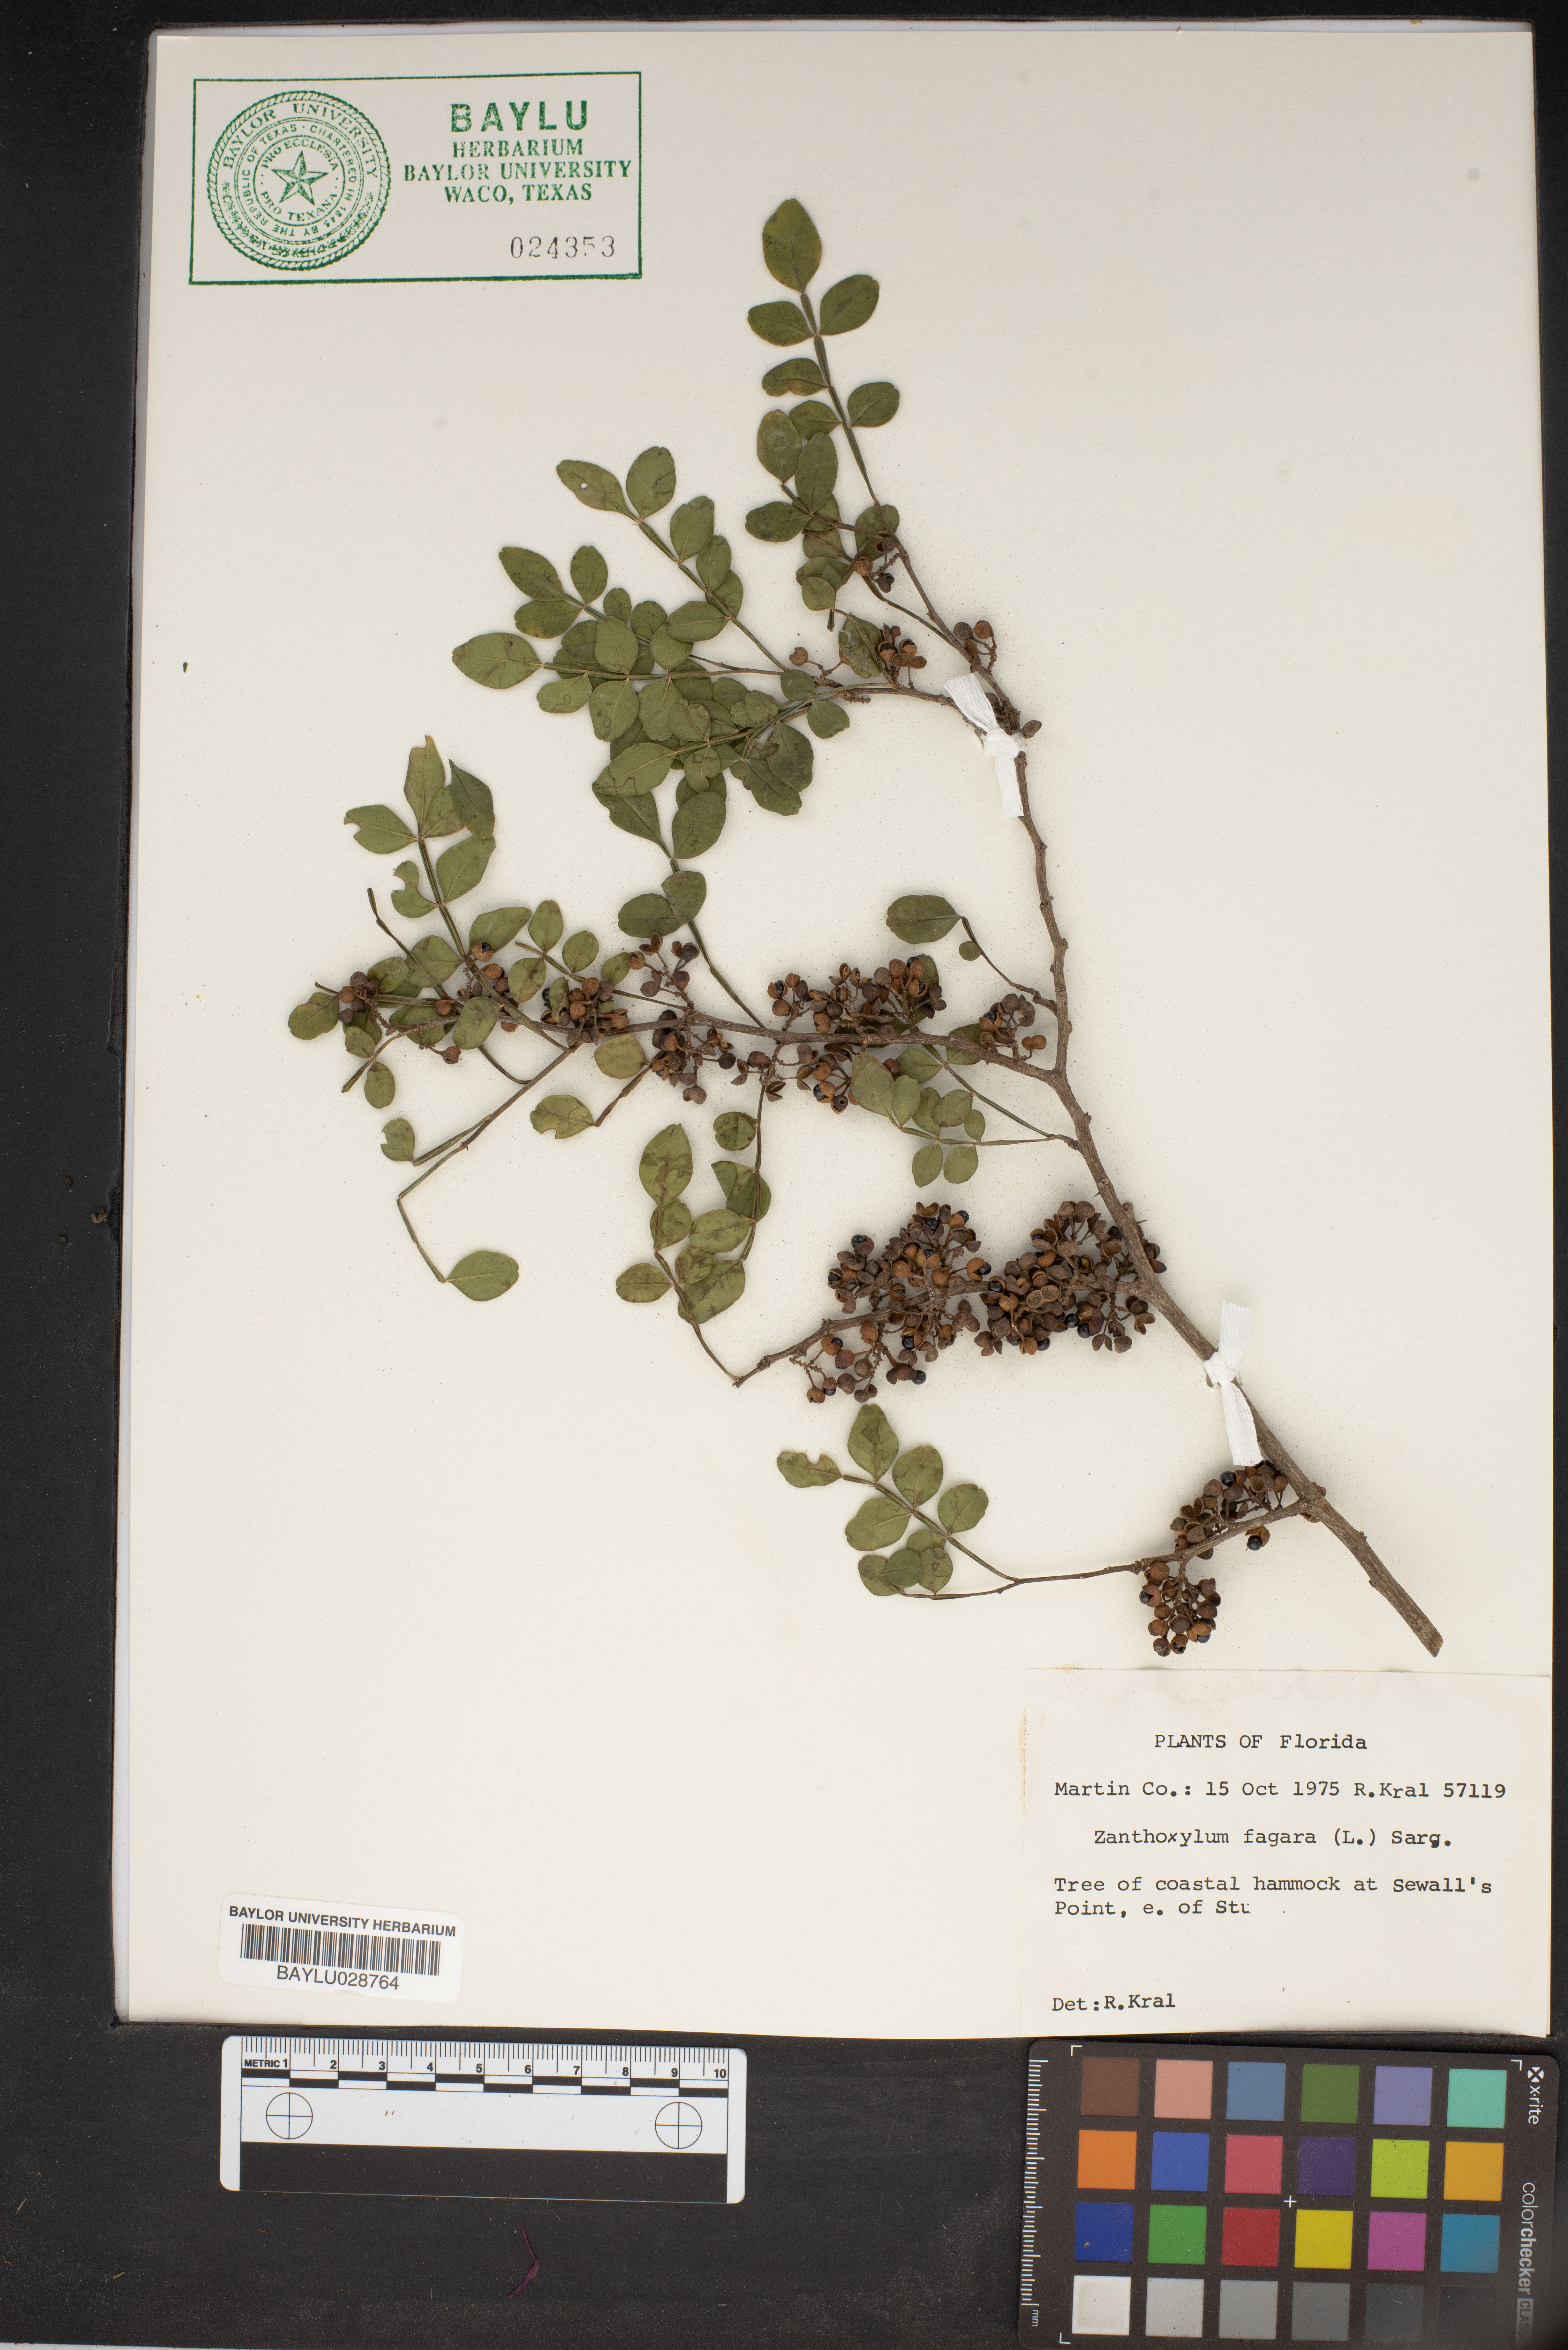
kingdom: Plantae
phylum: Tracheophyta
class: Magnoliopsida
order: Sapindales
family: Rutaceae
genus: Zanthoxylum
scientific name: Zanthoxylum fagara
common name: Lime prickly-ash
